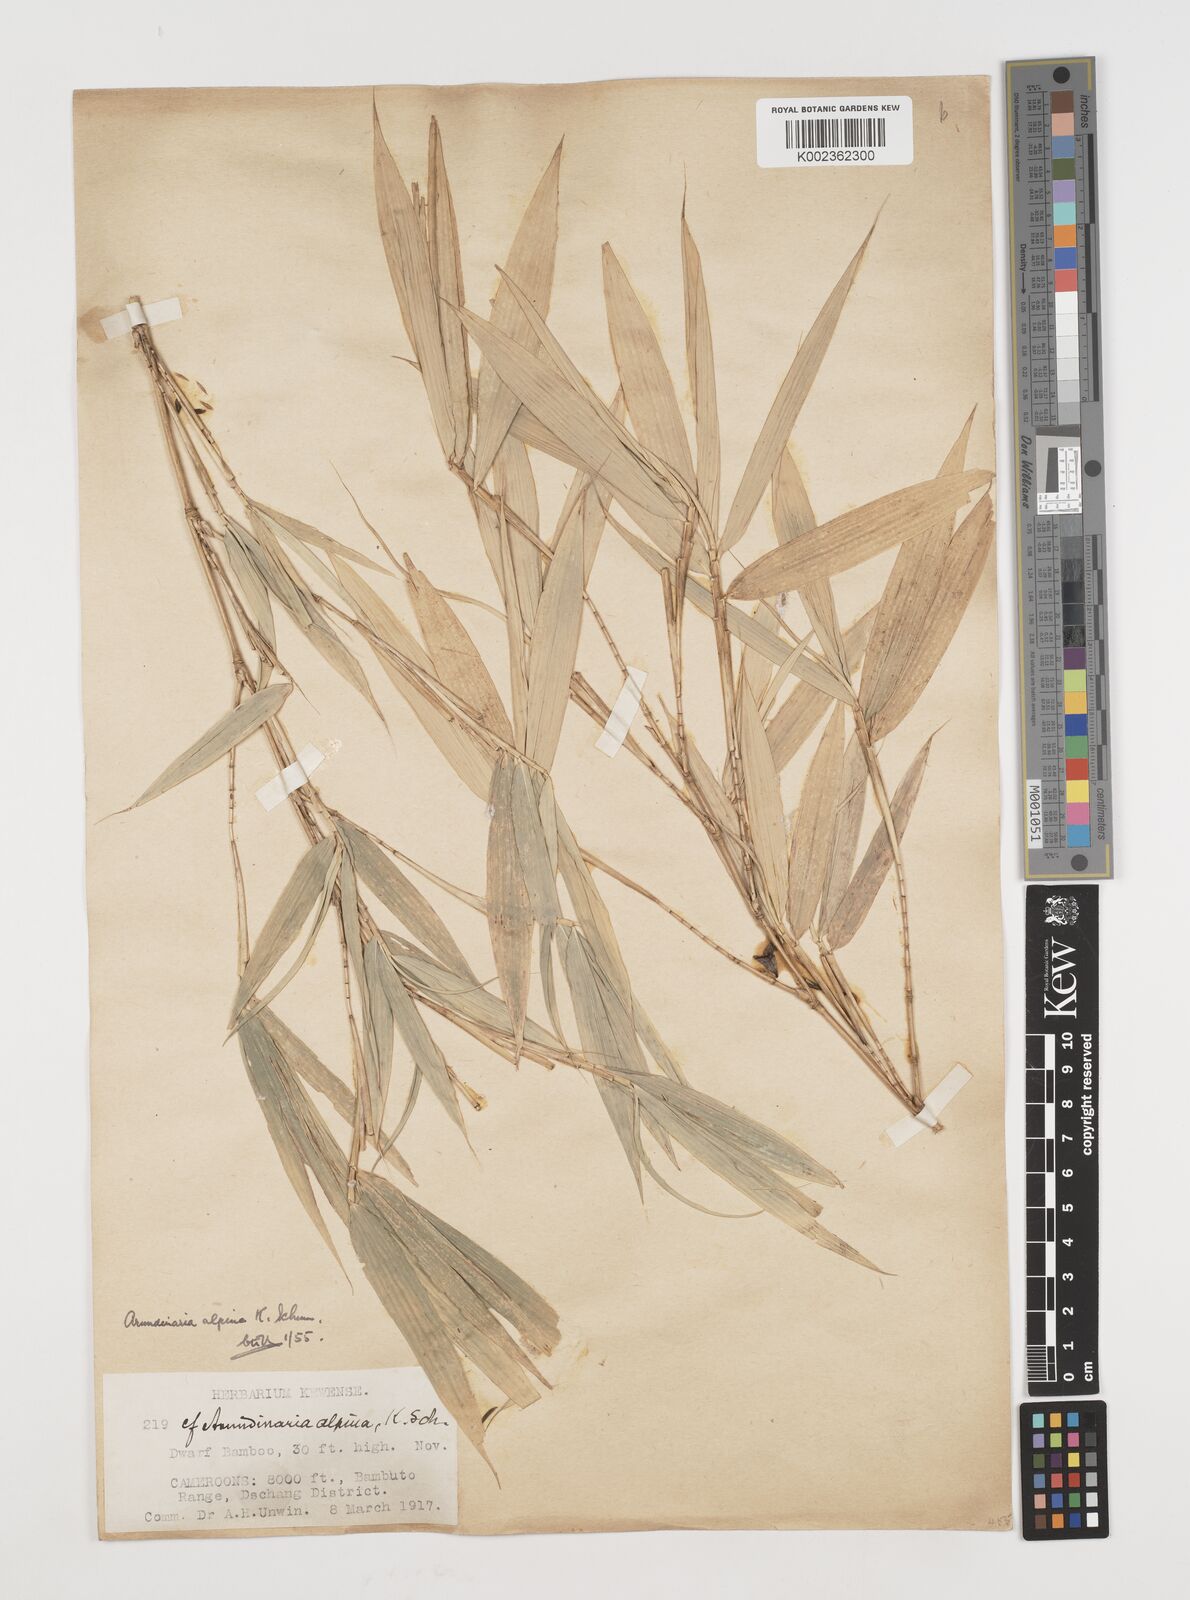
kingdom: Plantae
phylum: Tracheophyta
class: Liliopsida
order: Poales
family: Poaceae
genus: Oldeania
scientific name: Oldeania alpina
